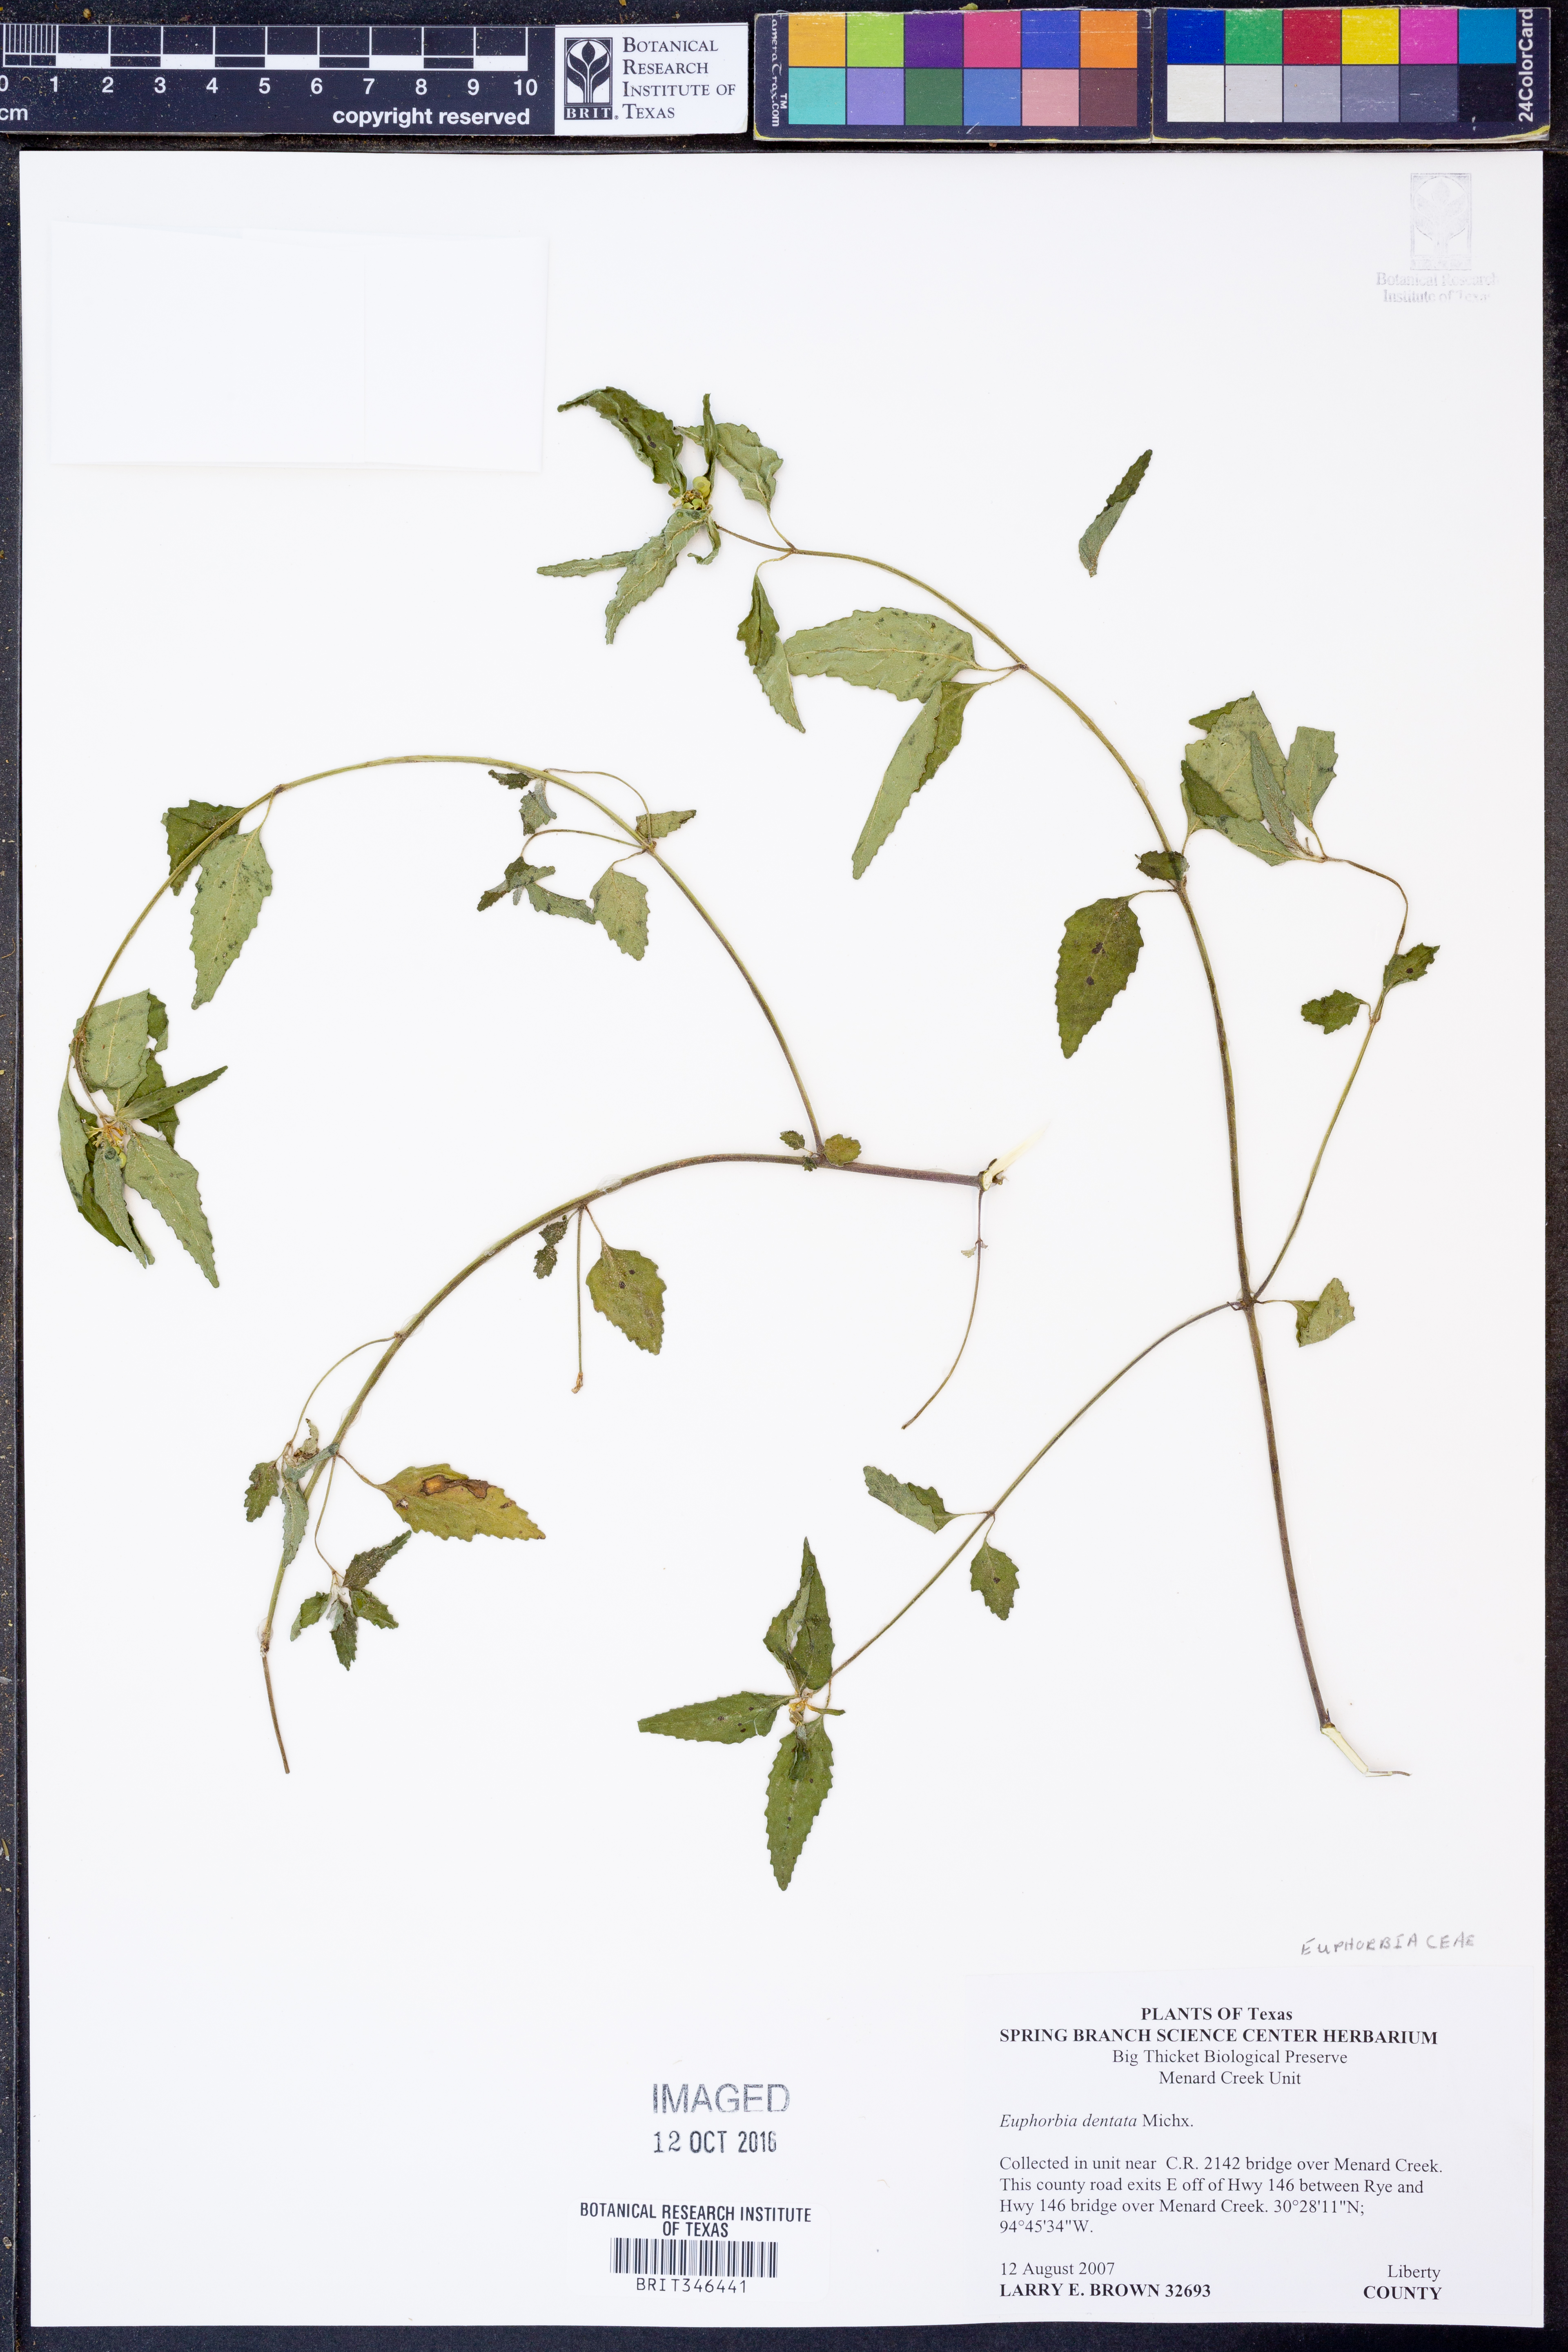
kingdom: Plantae
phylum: Tracheophyta
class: Magnoliopsida
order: Malpighiales
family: Euphorbiaceae
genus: Euphorbia
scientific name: Euphorbia dentata
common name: Dentate spurge
